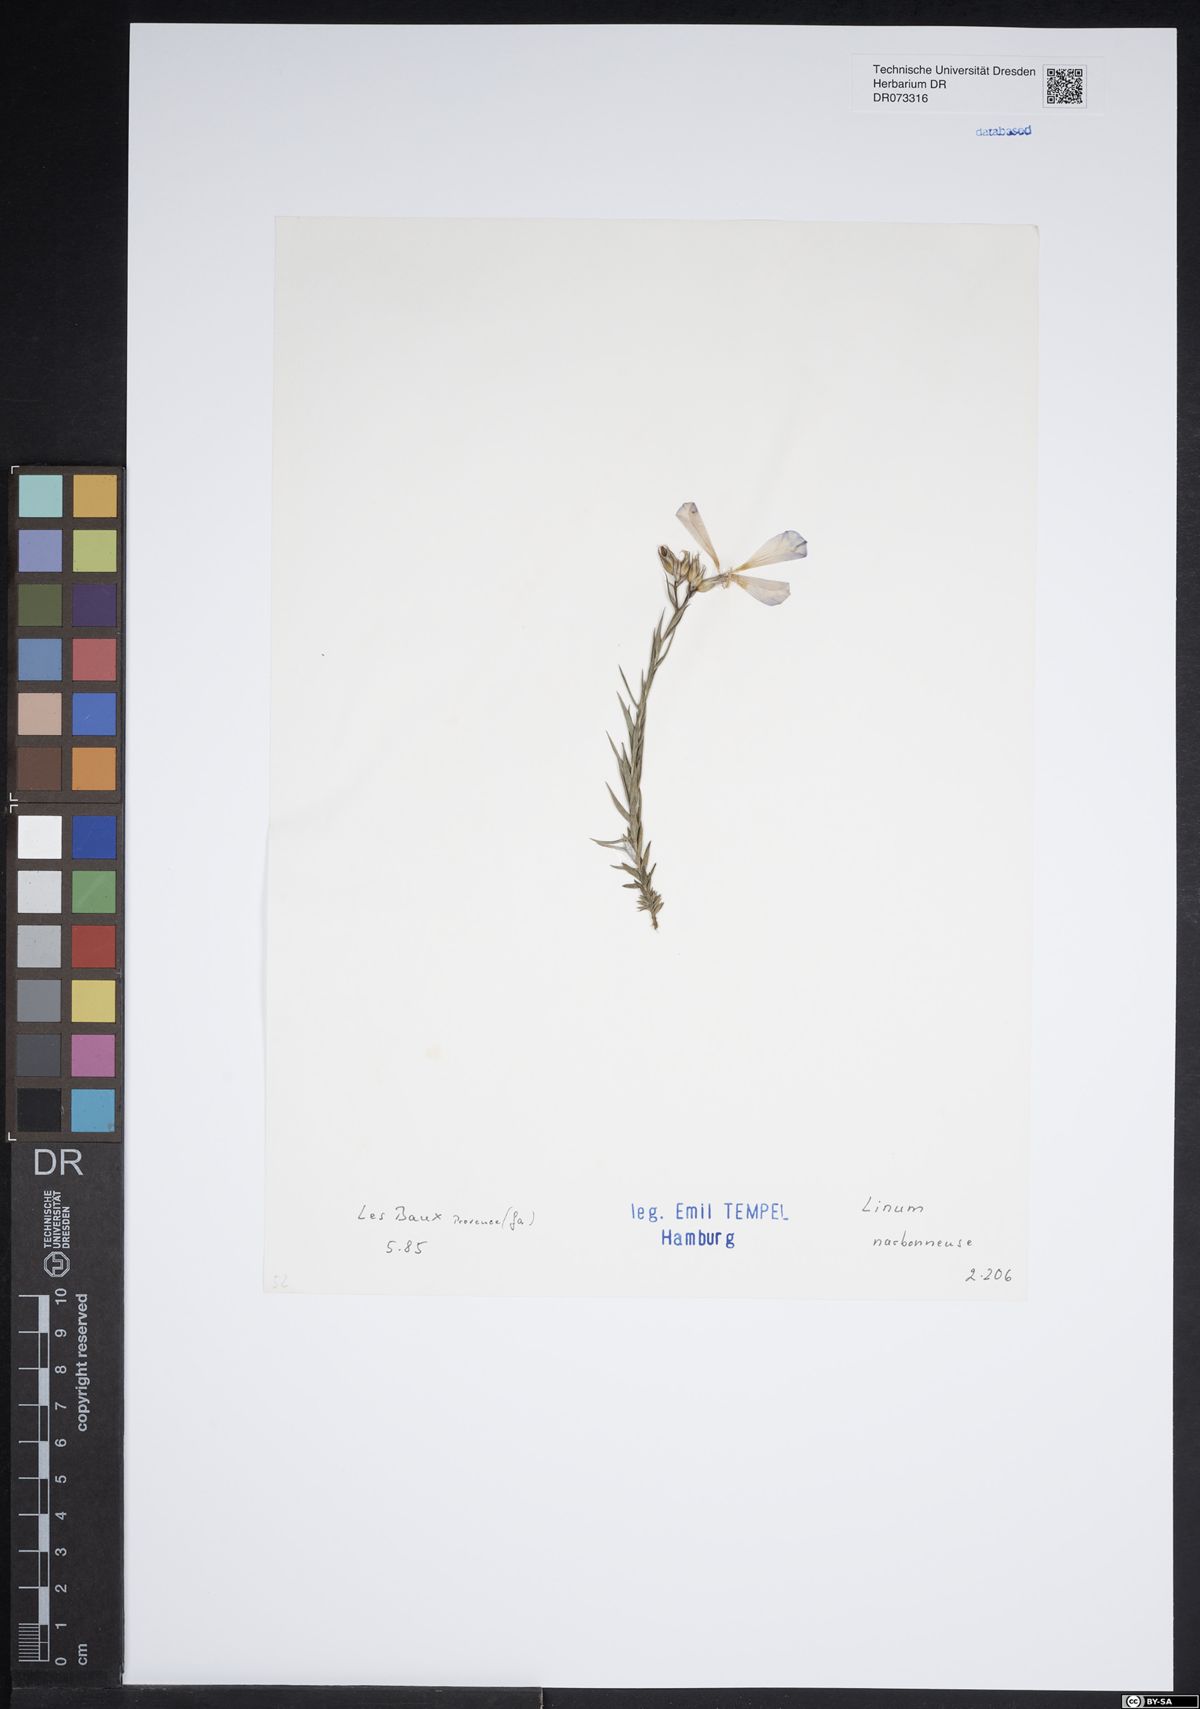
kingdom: Plantae
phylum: Tracheophyta
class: Magnoliopsida
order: Malpighiales
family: Linaceae
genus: Linum
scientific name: Linum narbonense
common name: Flax
